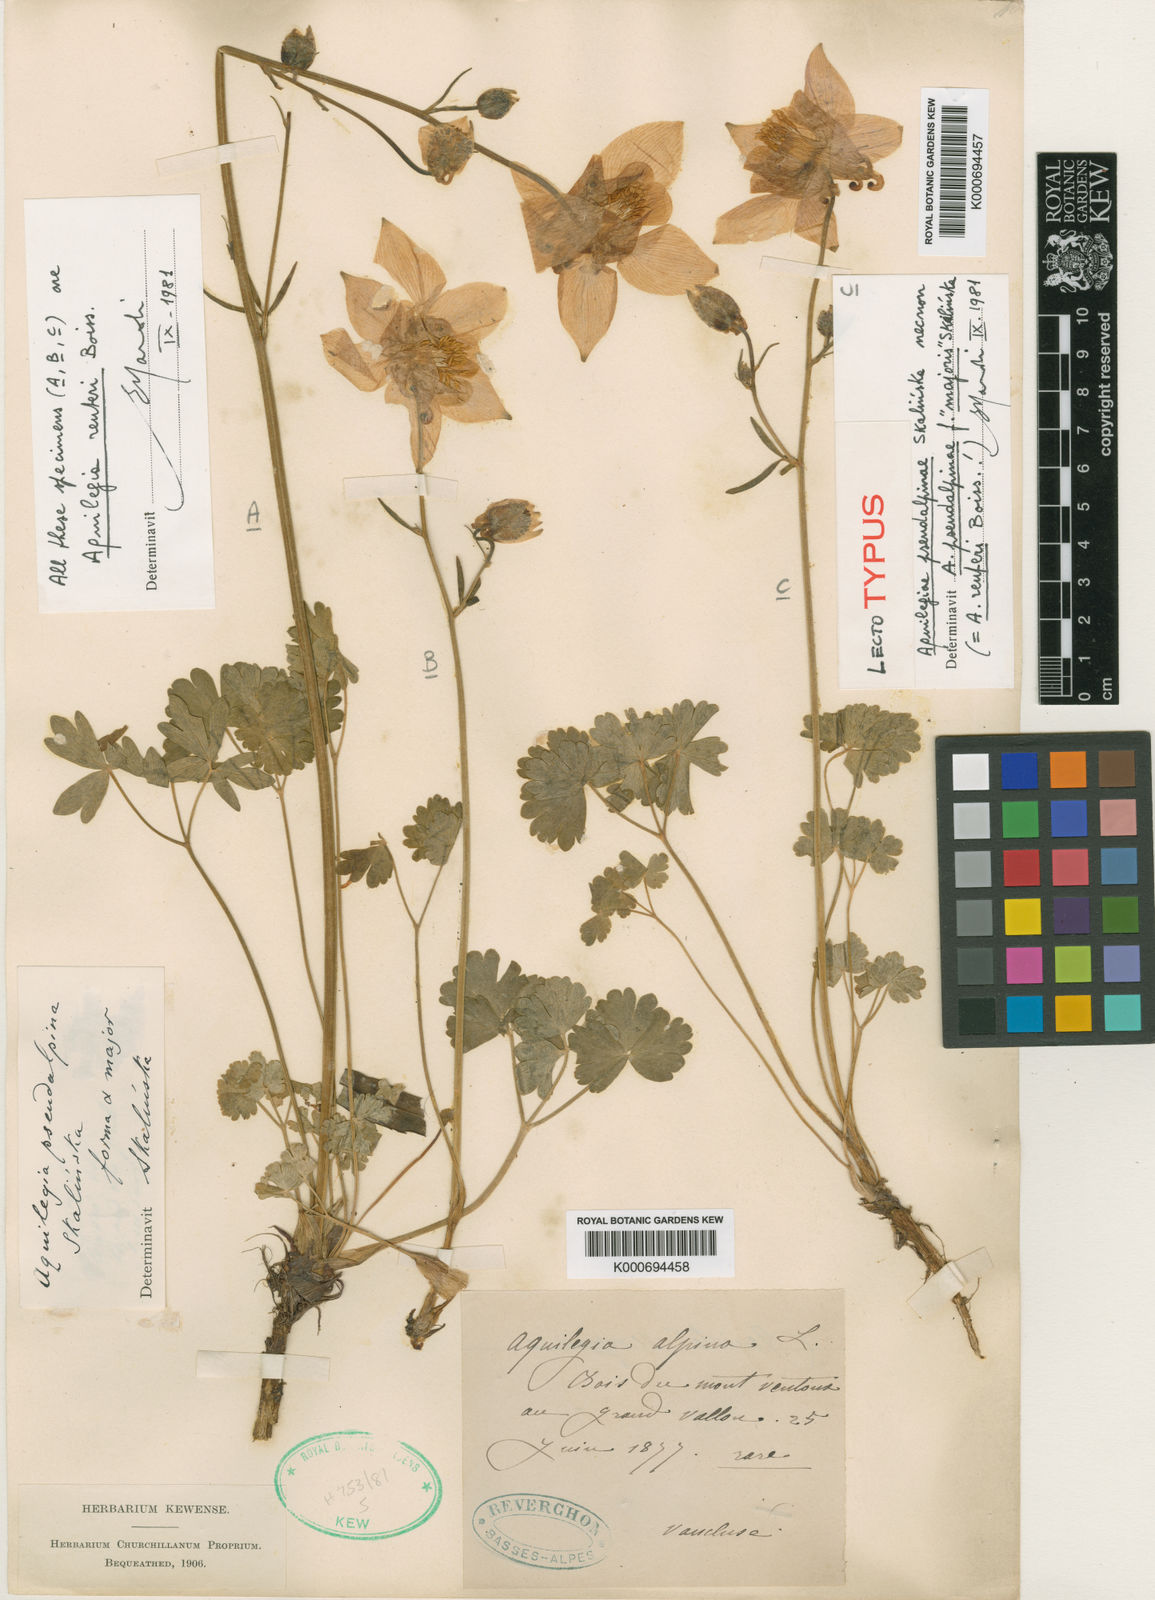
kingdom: Plantae
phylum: Tracheophyta
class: Magnoliopsida
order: Ranunculales
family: Ranunculaceae
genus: Aquilegia
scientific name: Aquilegia bertolonii
